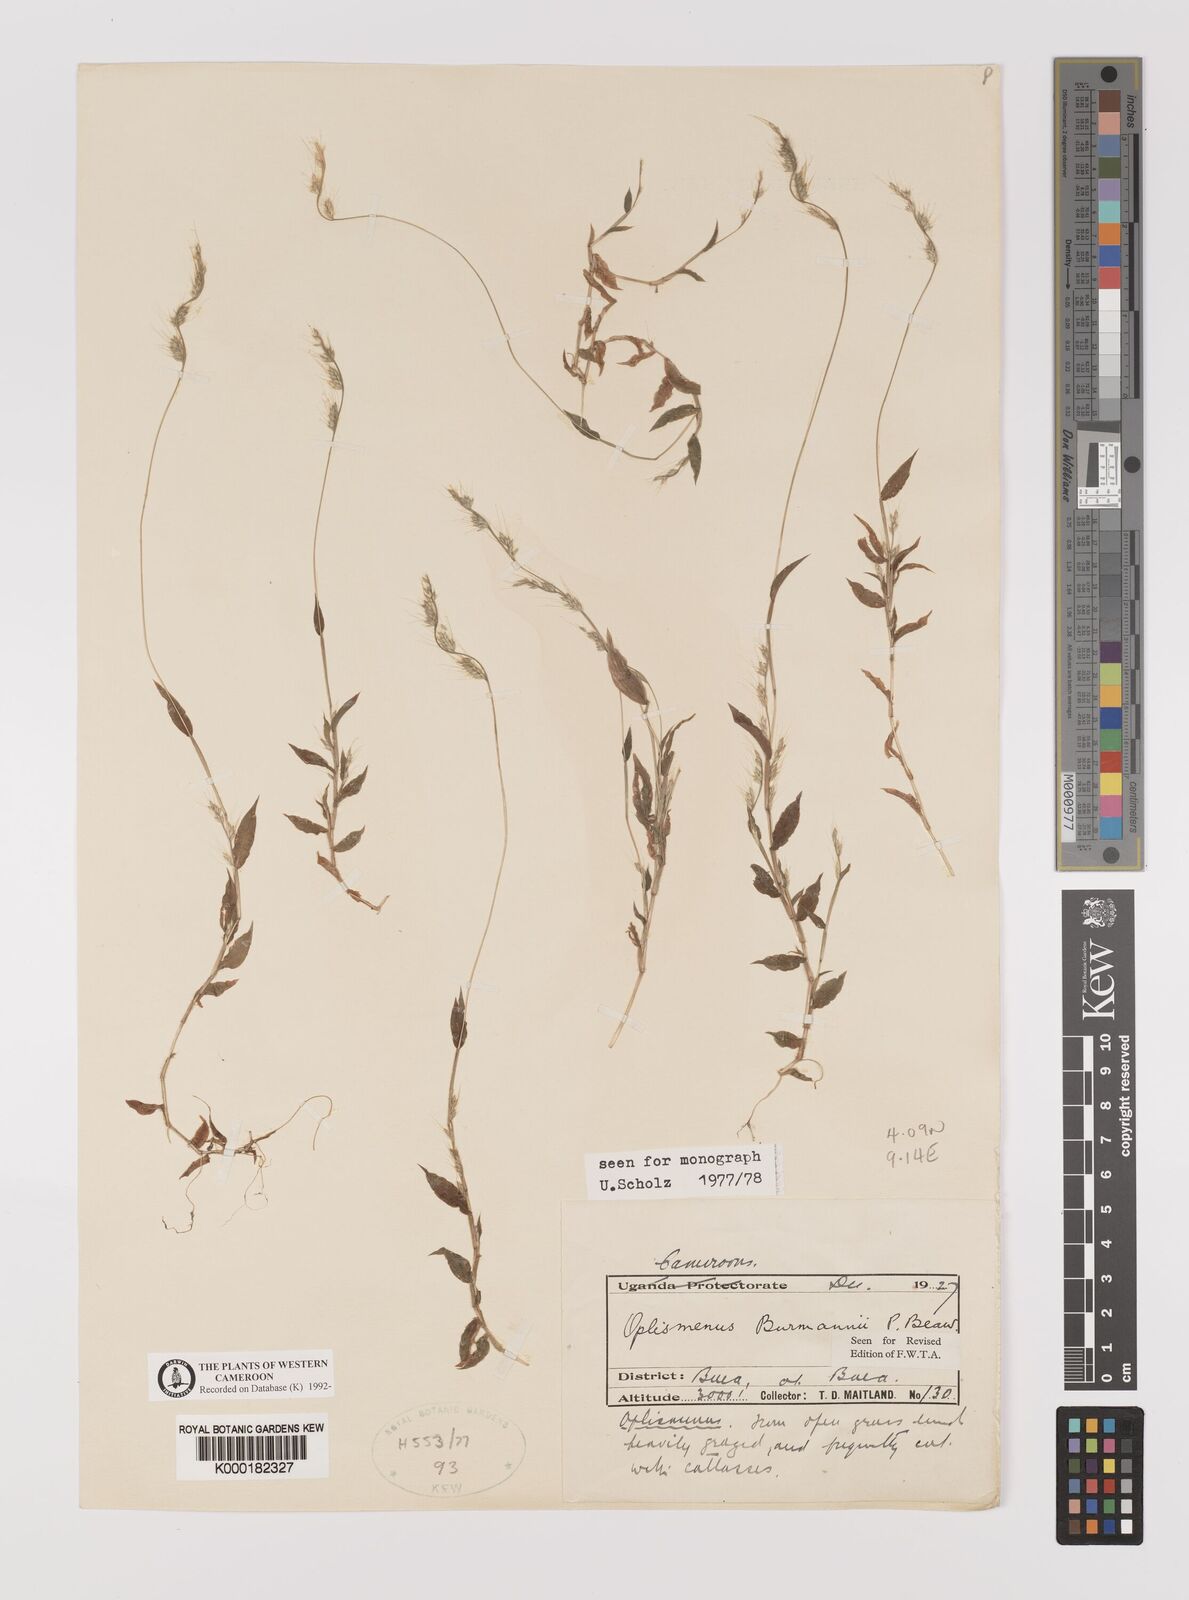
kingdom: Plantae
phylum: Tracheophyta
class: Liliopsida
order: Poales
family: Poaceae
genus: Oplismenus
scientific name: Oplismenus burmanni
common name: Burmann's basketgrass
